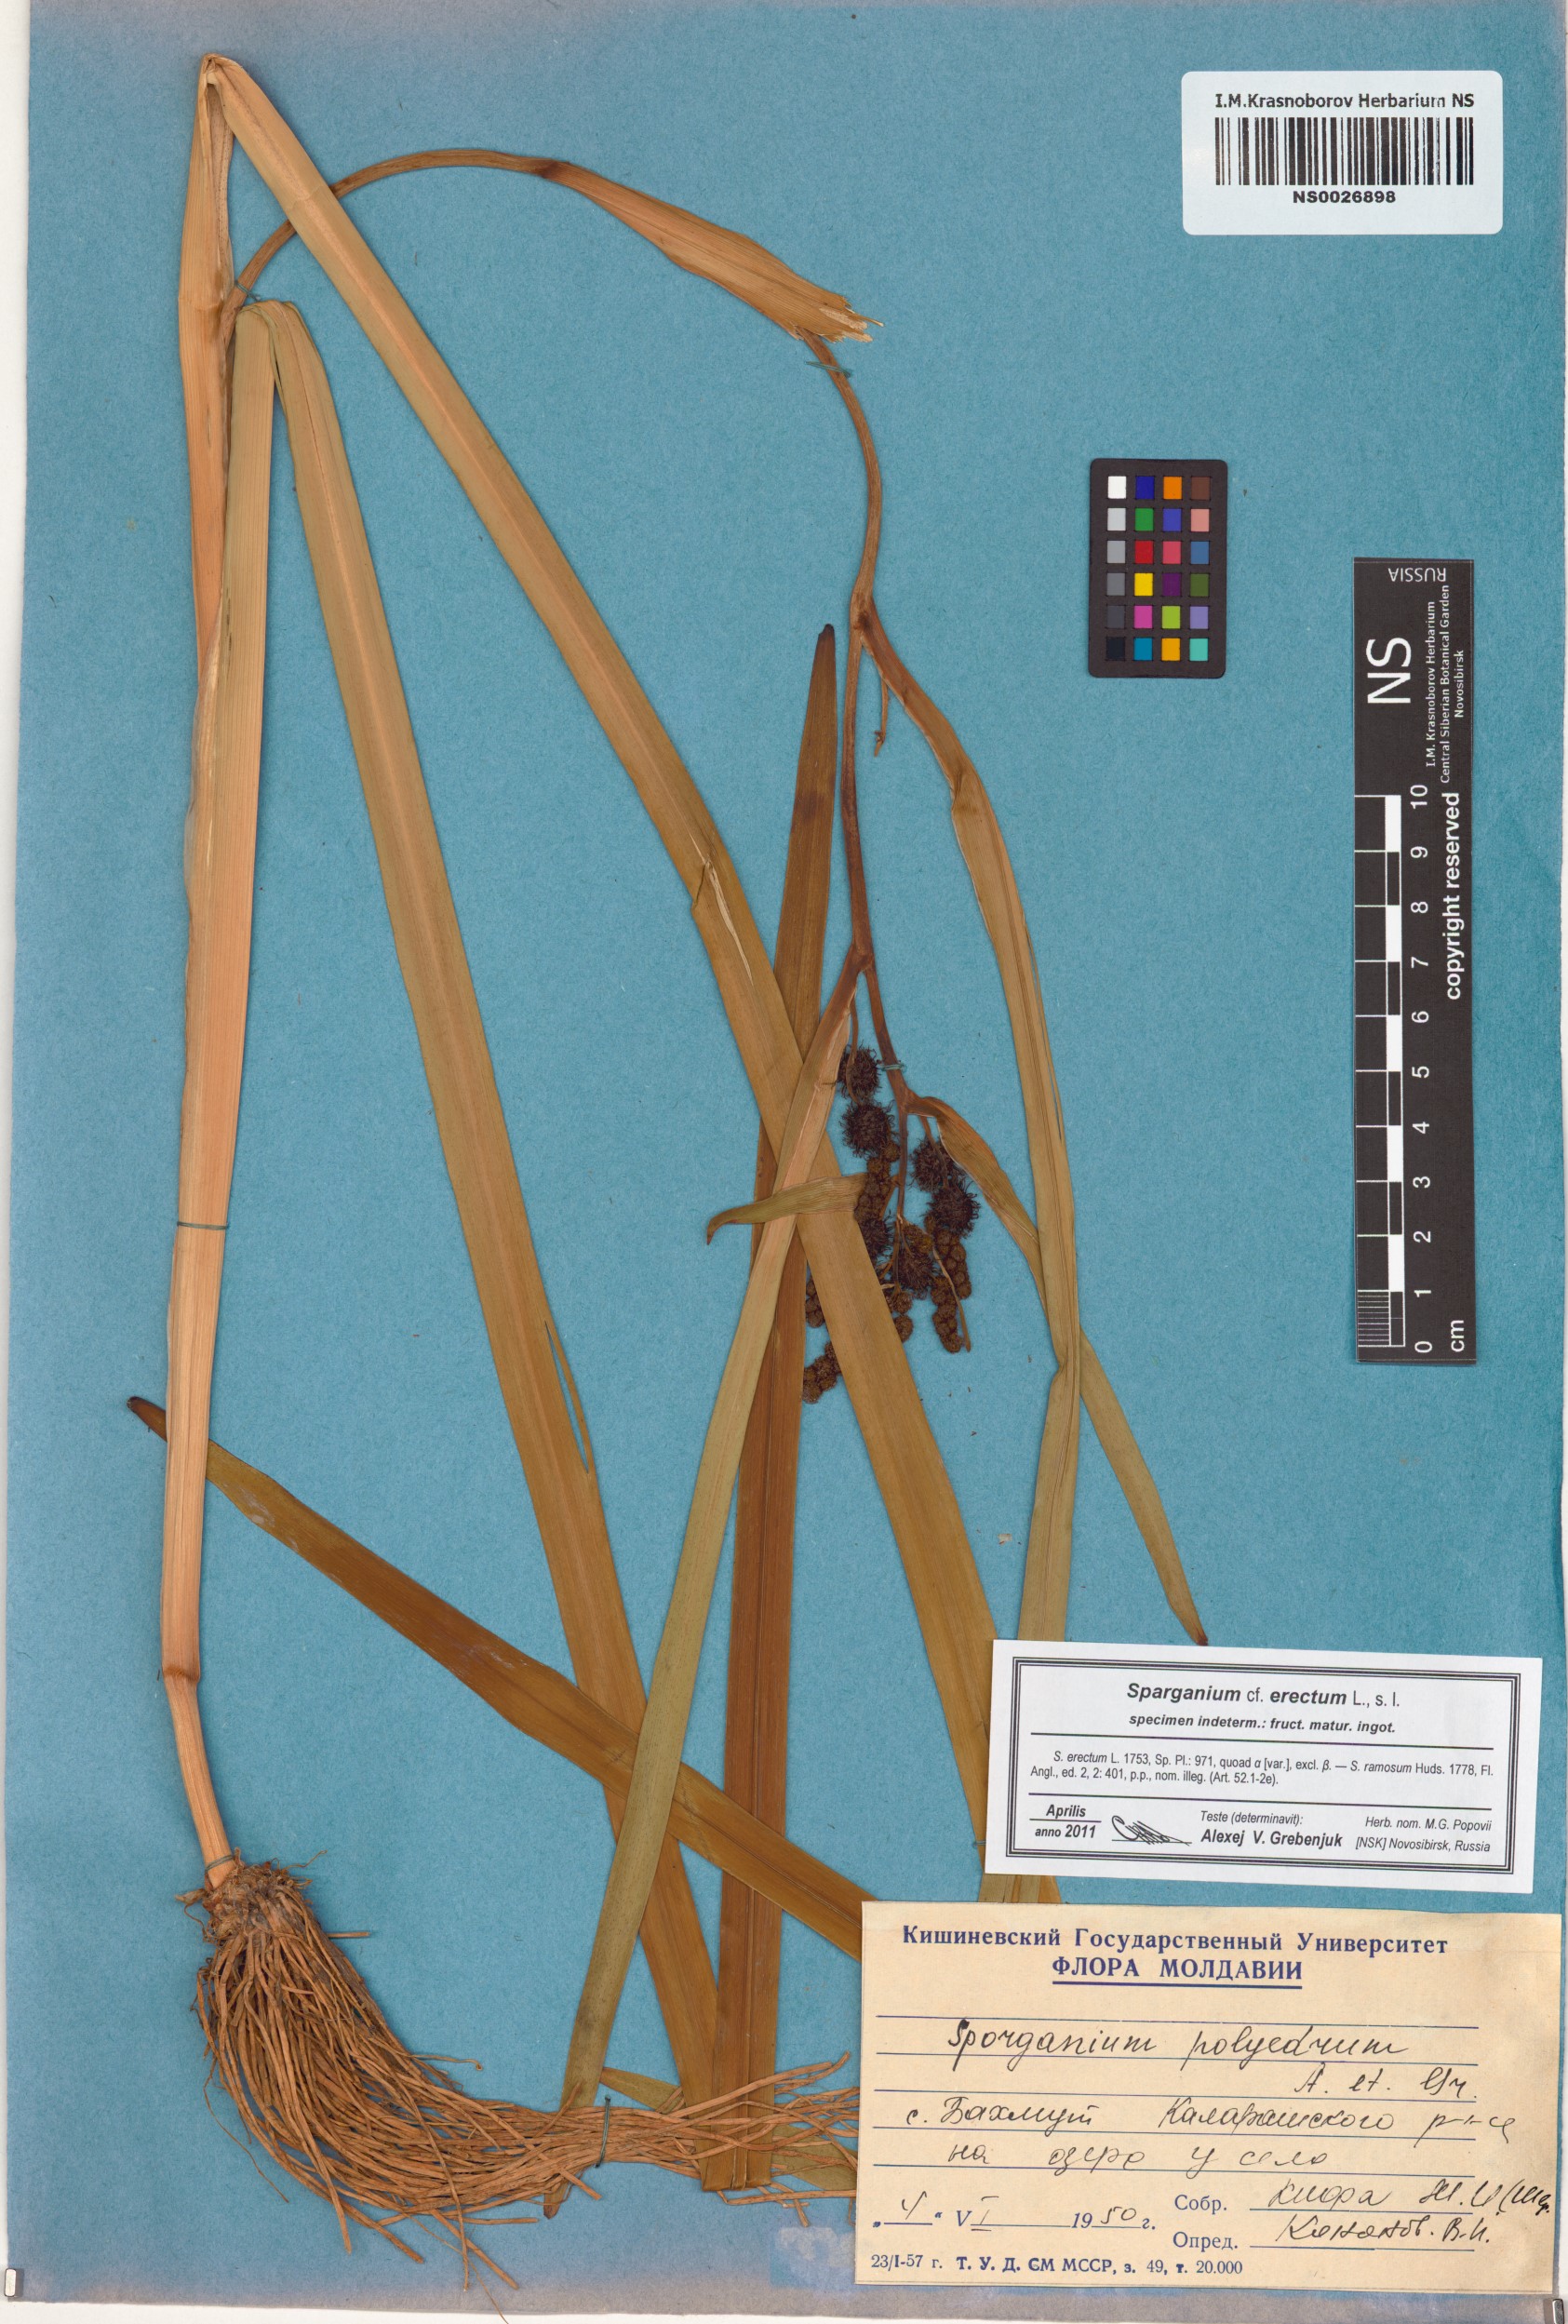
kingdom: Plantae
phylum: Tracheophyta
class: Liliopsida
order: Poales
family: Typhaceae
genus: Sparganium
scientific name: Sparganium erectum
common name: Branched bur-reed
